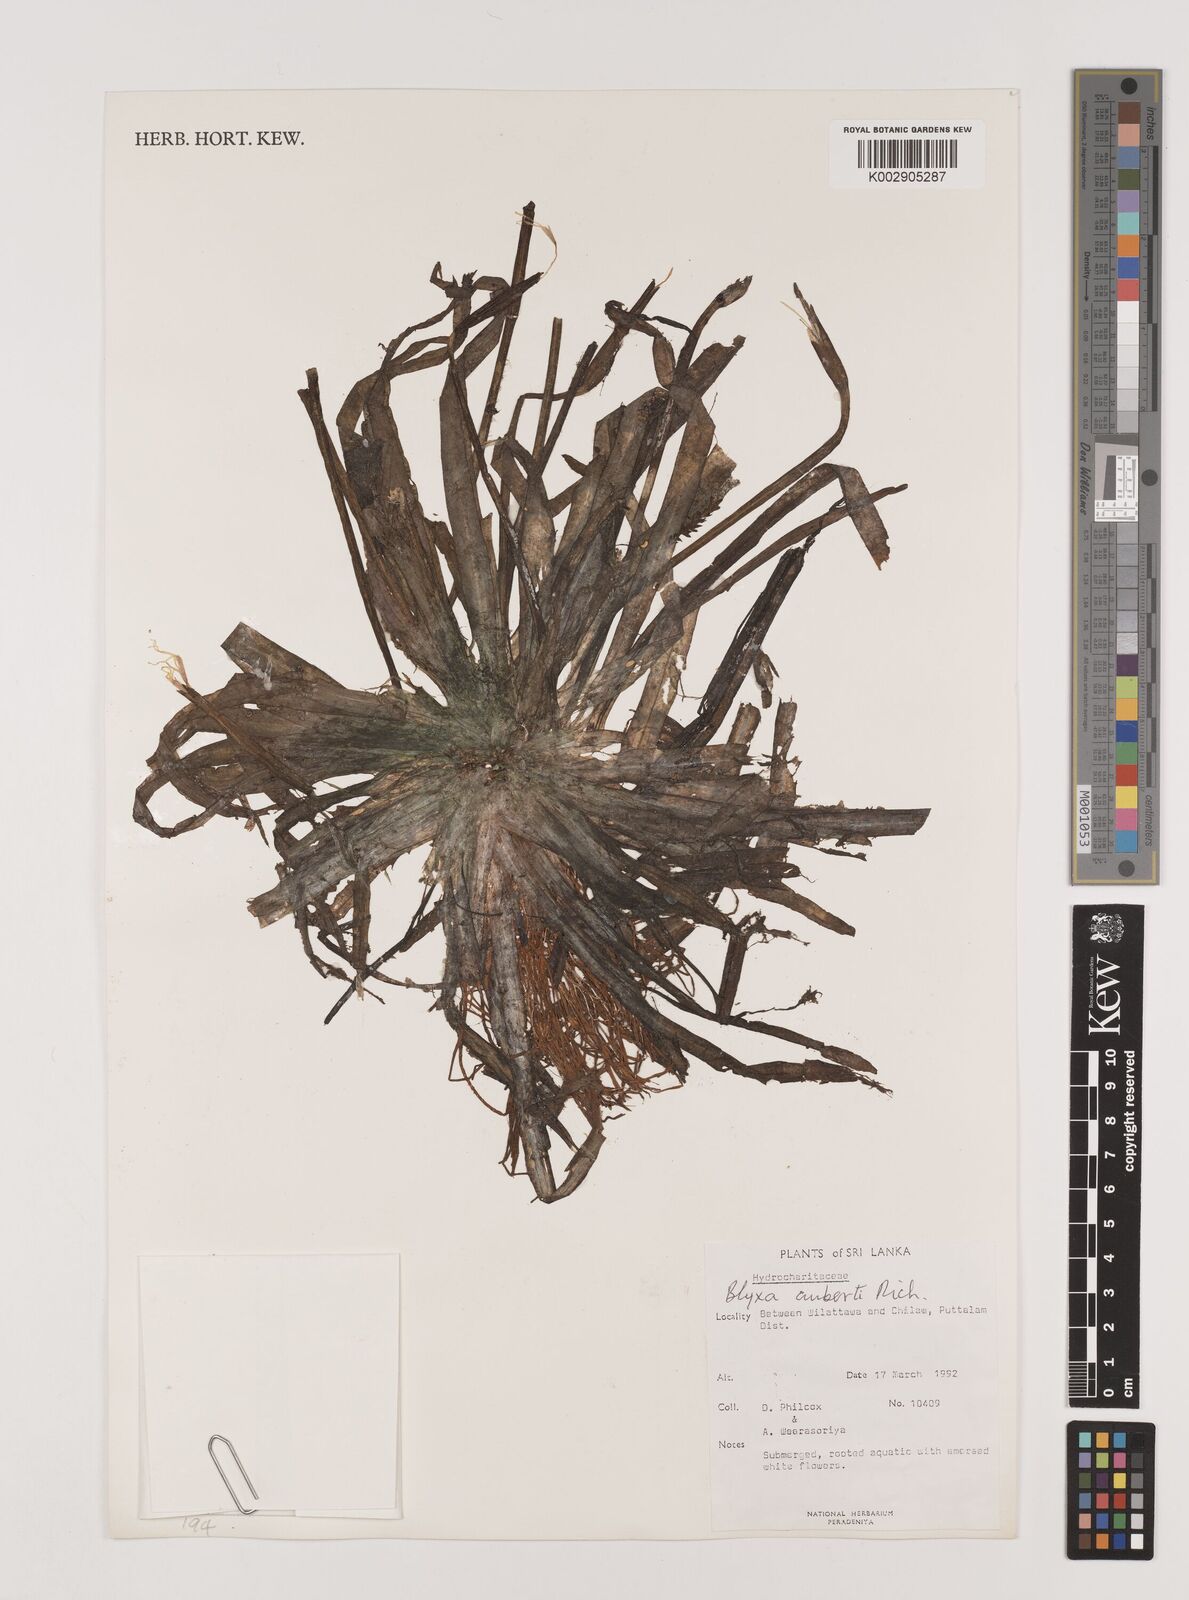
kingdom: Plantae
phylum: Tracheophyta
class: Liliopsida
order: Alismatales
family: Hydrocharitaceae
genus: Blyxa
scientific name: Blyxa aubertii
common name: Roundfruit blyxa
